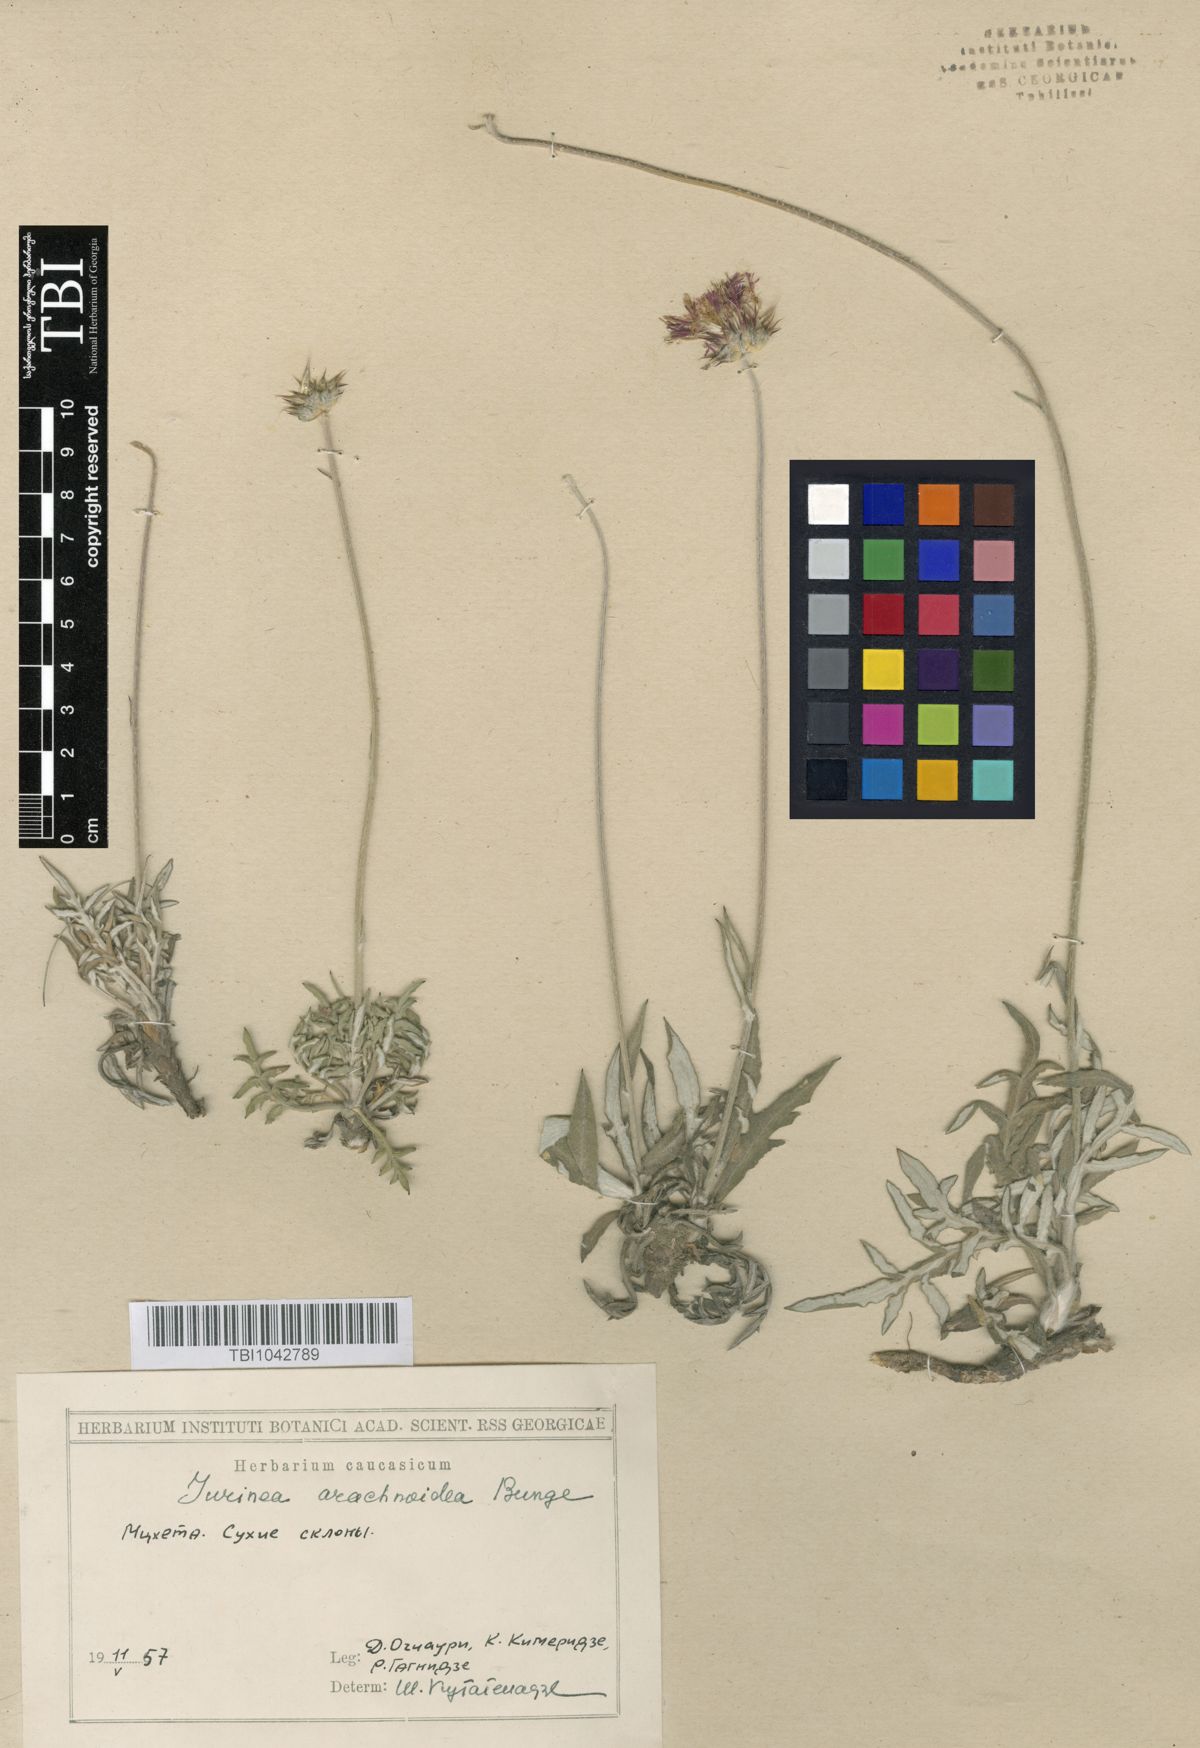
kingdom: Plantae
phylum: Tracheophyta
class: Magnoliopsida
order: Asterales
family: Asteraceae
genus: Jurinea
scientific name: Jurinea blanda
